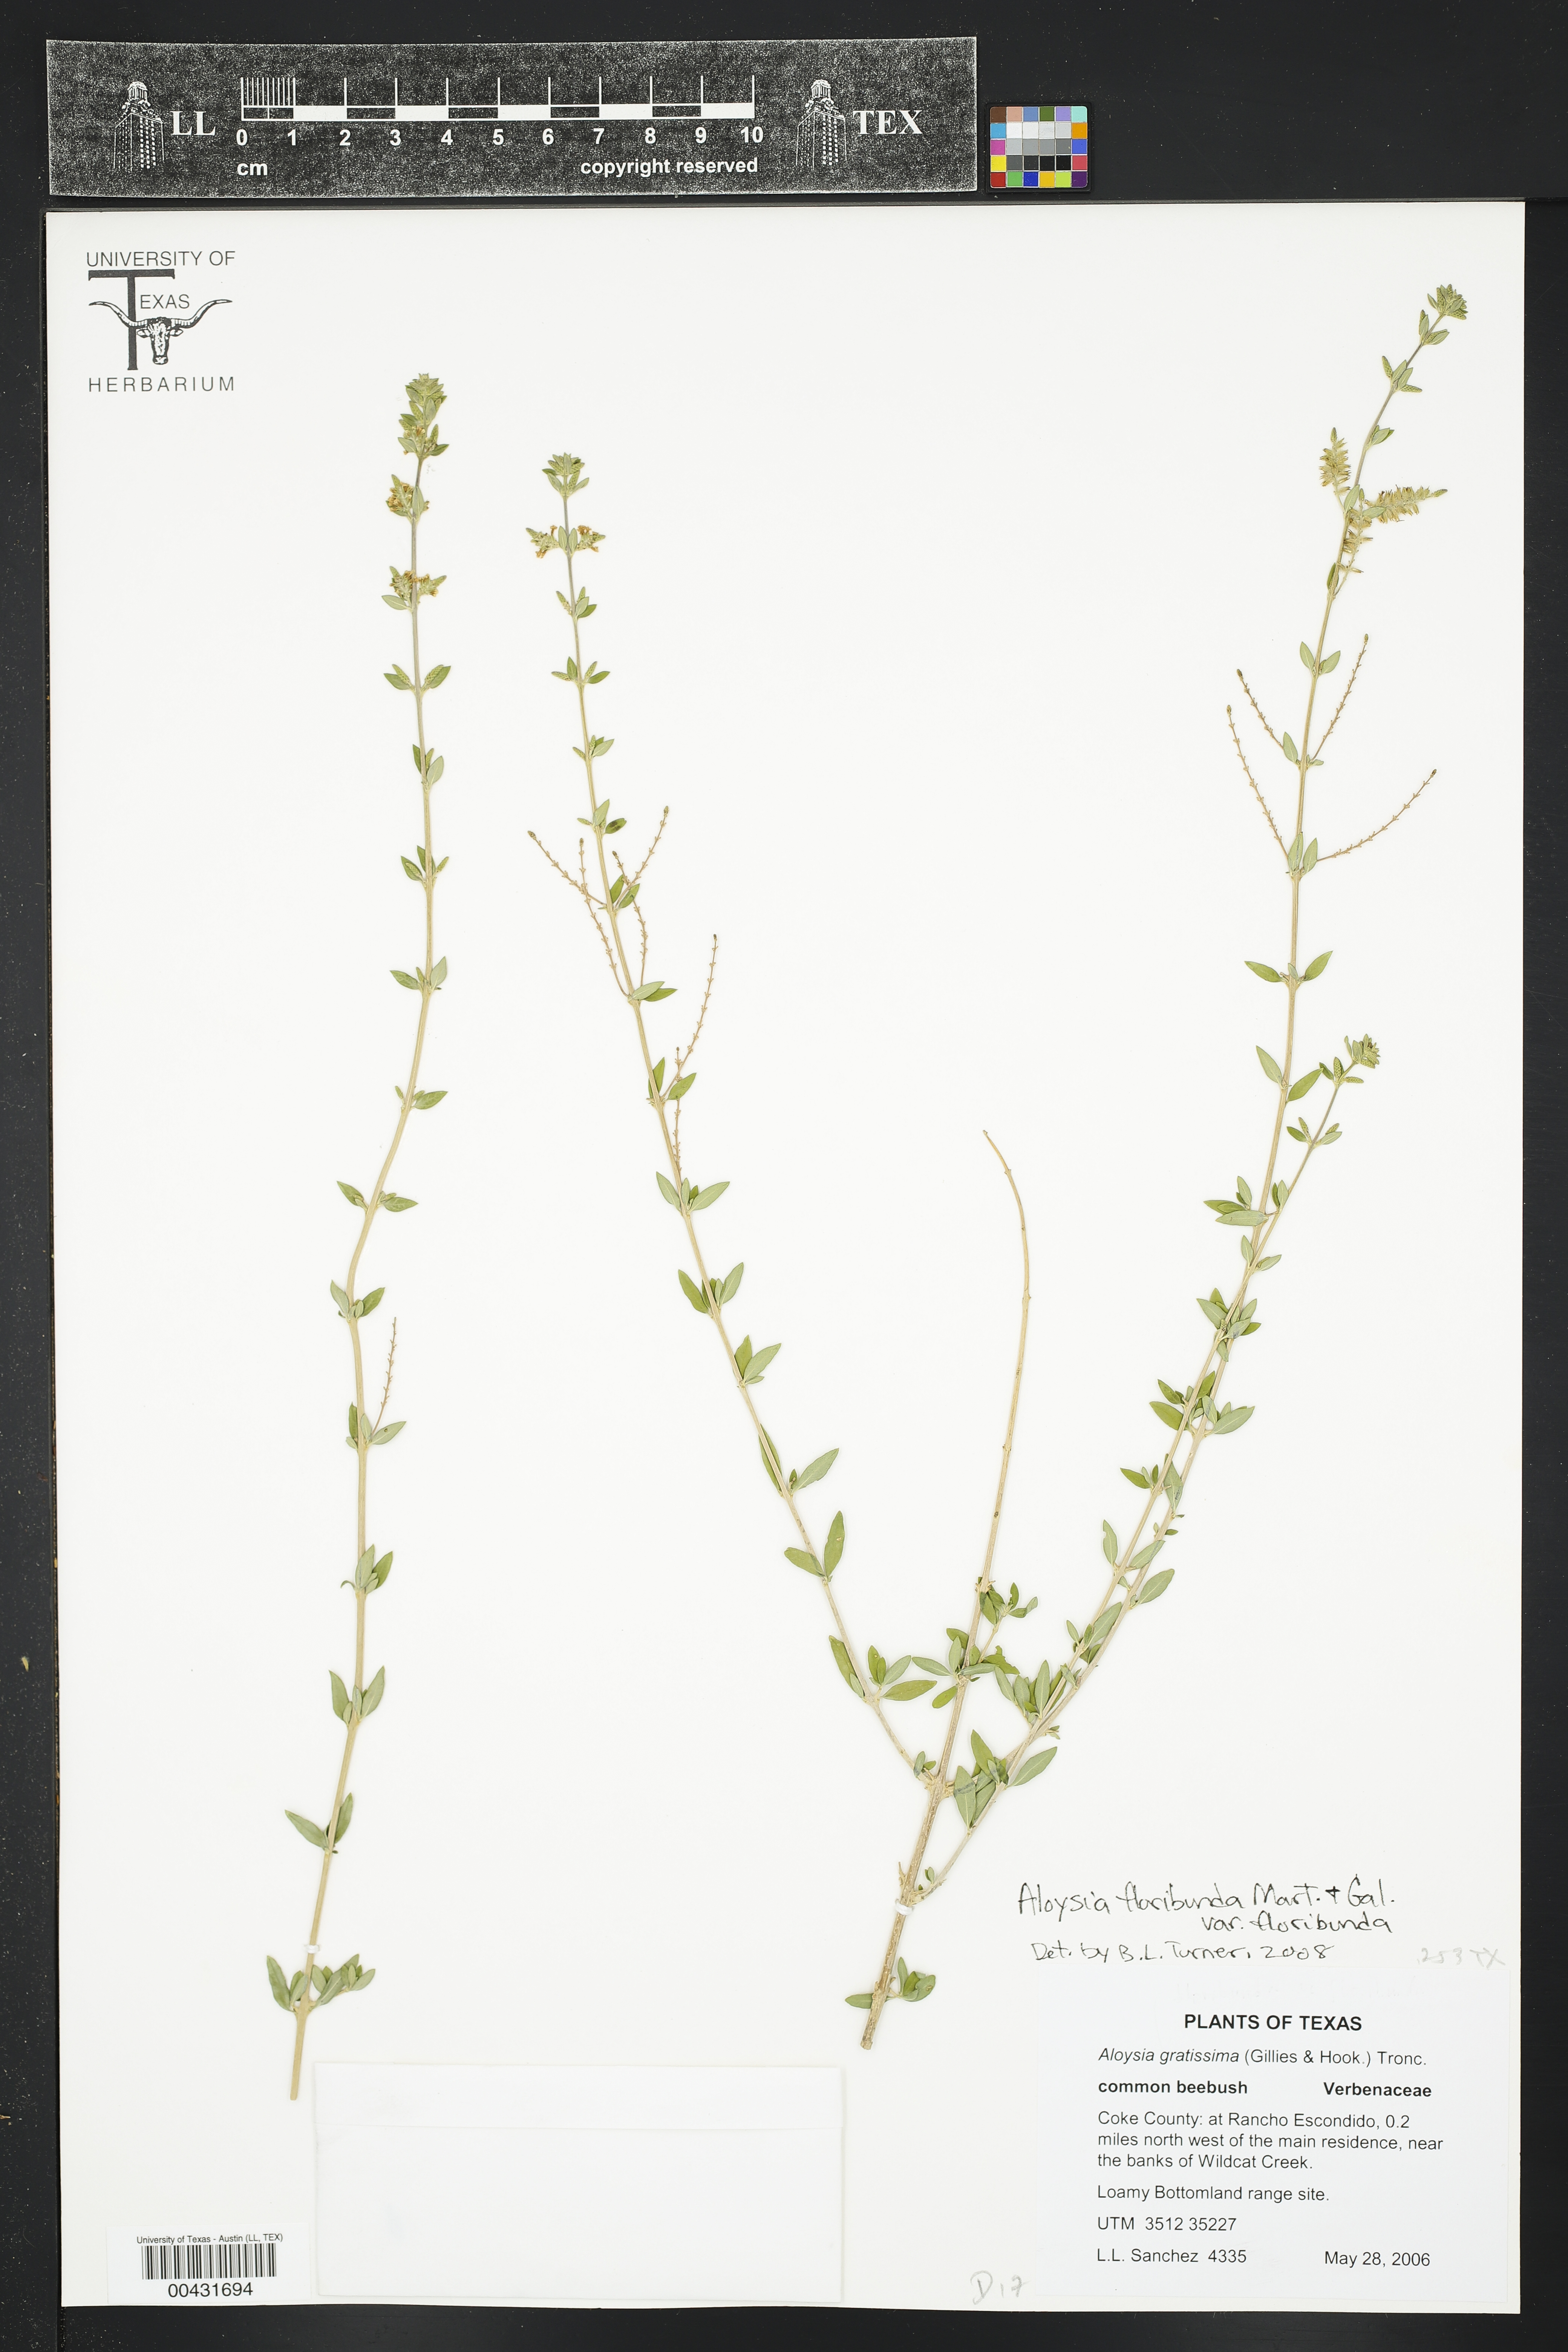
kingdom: Plantae
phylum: Tracheophyta
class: Magnoliopsida
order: Lamiales
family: Verbenaceae
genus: Aloysia
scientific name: Aloysia gratissima
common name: Common bee-brush
